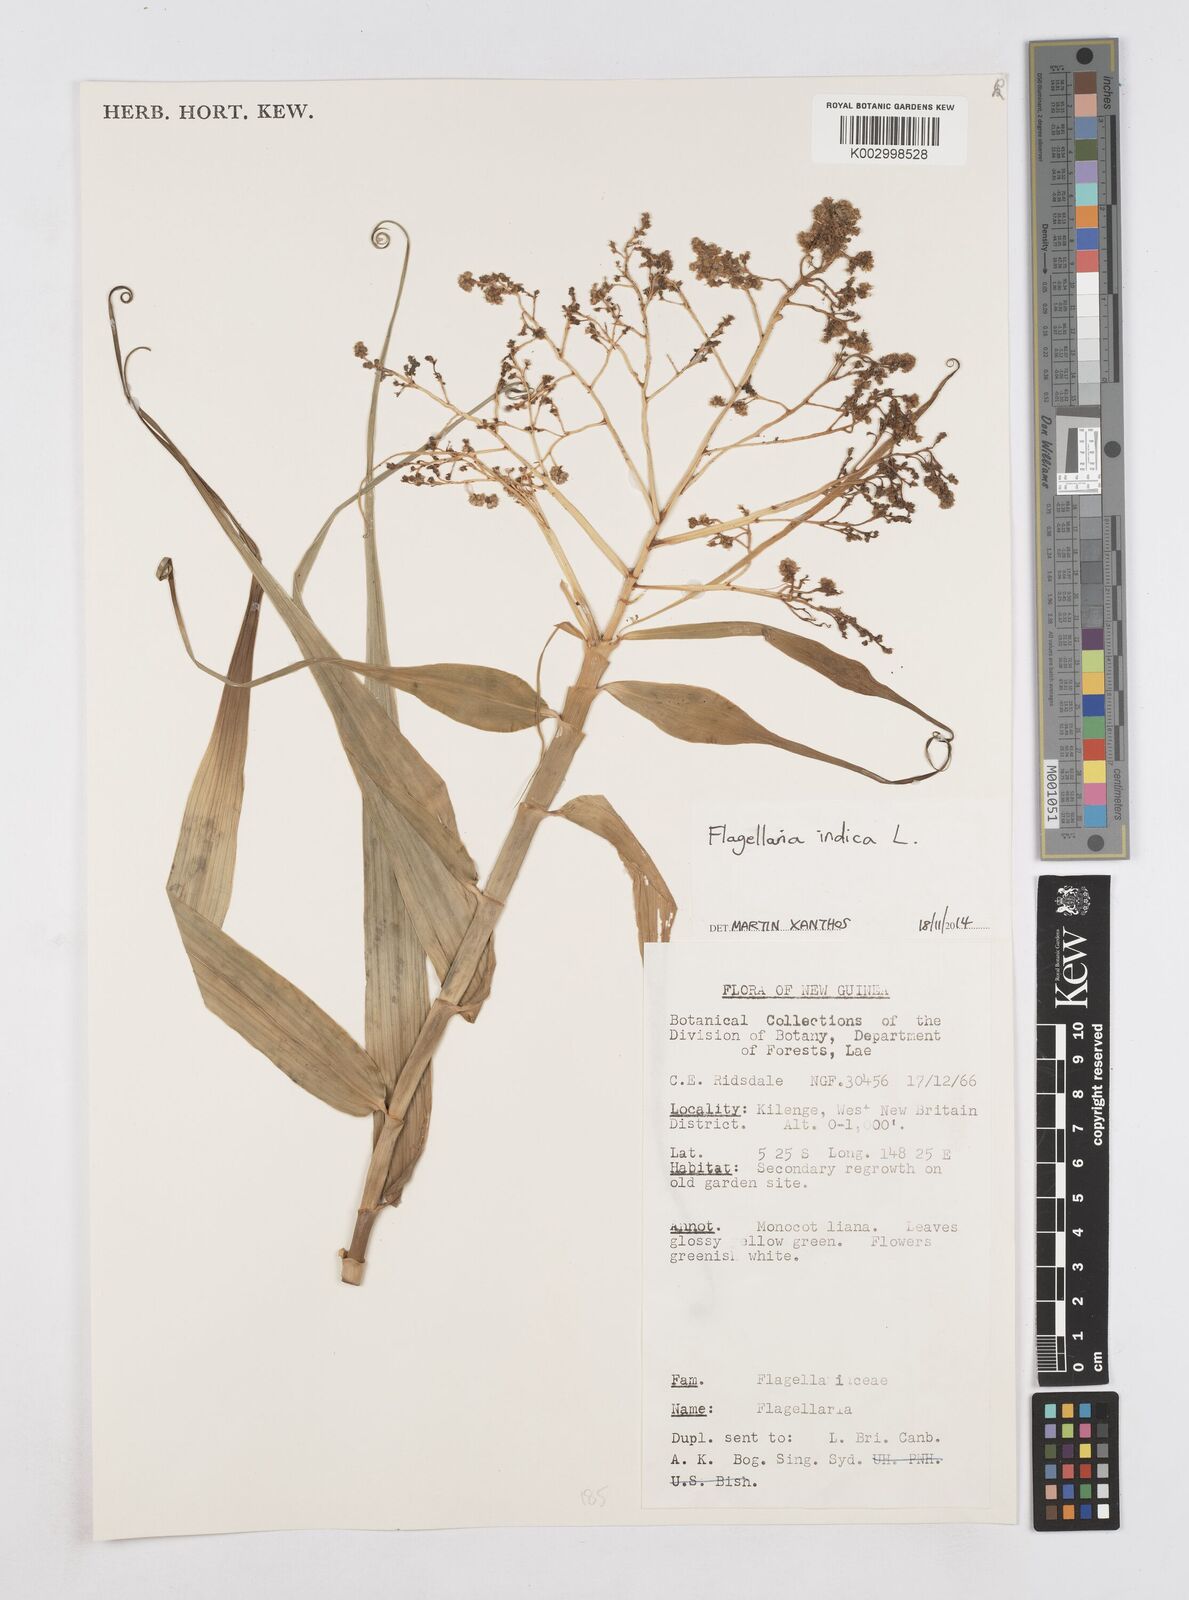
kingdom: Plantae
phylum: Tracheophyta
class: Liliopsida
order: Poales
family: Flagellariaceae
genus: Flagellaria
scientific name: Flagellaria indica
